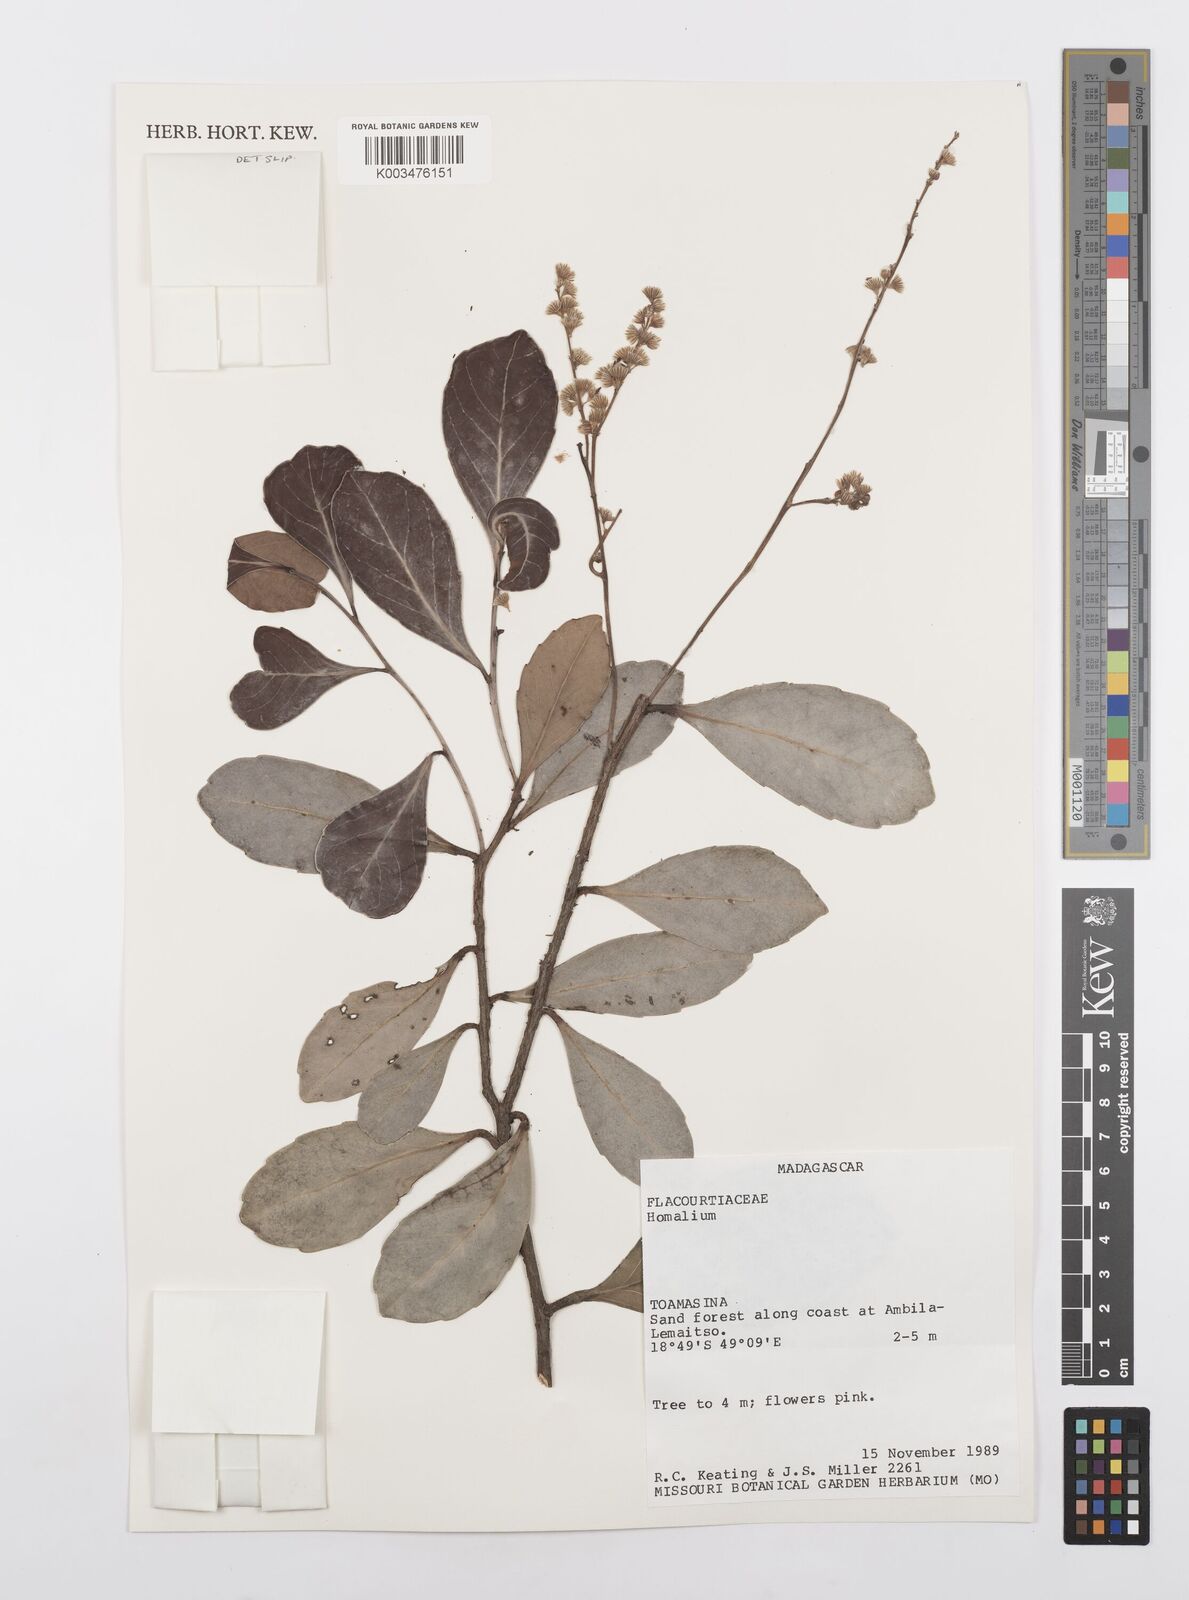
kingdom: Plantae
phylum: Tracheophyta
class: Magnoliopsida
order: Malpighiales
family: Salicaceae
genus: Homalium
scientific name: Homalium
